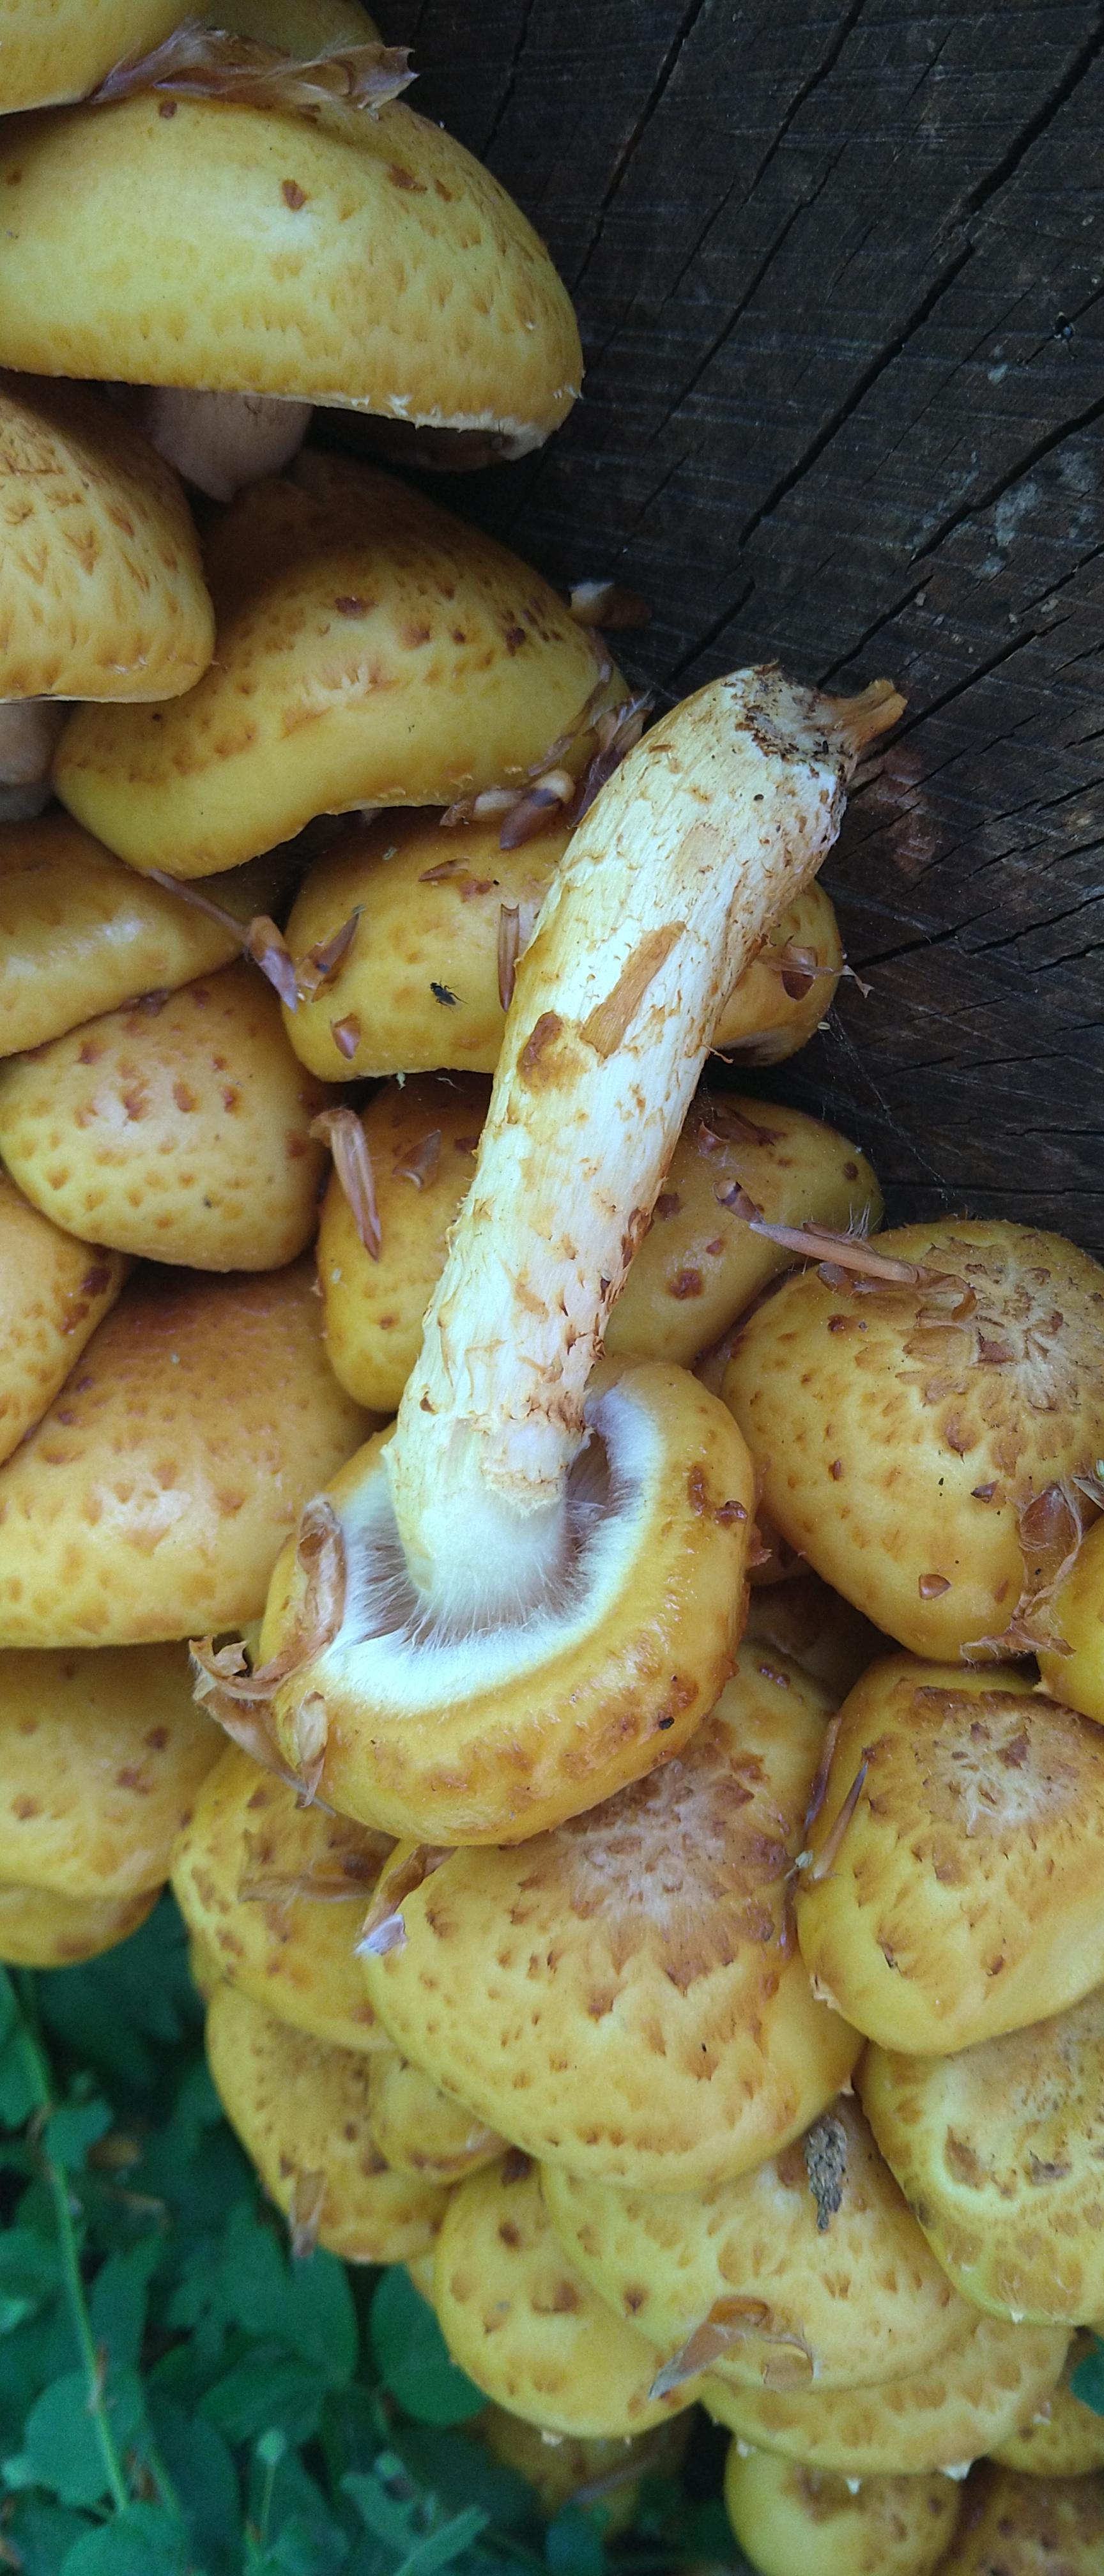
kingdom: Fungi
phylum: Basidiomycota
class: Agaricomycetes
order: Agaricales
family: Strophariaceae
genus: Pholiota
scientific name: Pholiota adiposa
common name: højtsiddende skælhat
